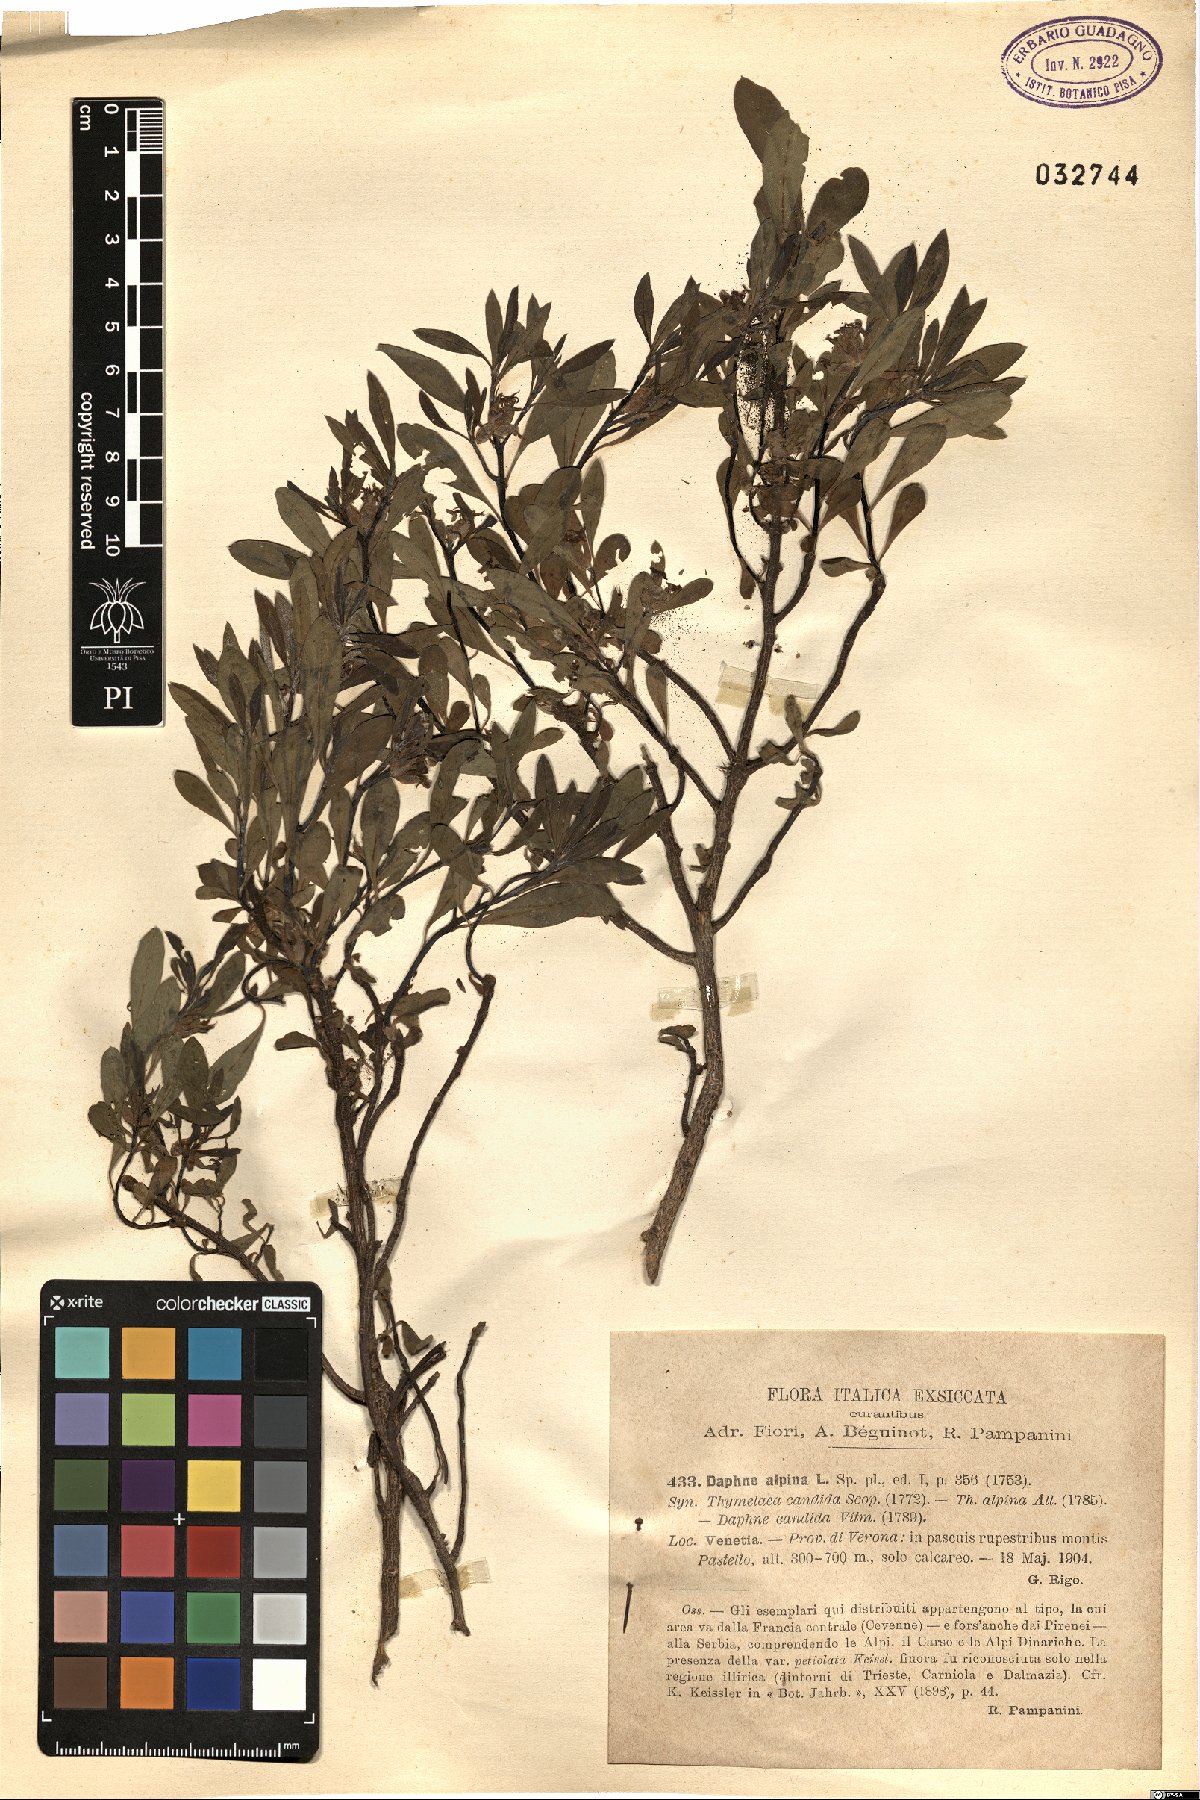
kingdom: Plantae
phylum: Tracheophyta
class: Magnoliopsida
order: Malvales
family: Thymelaeaceae
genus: Daphne
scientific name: Daphne alpina
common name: Alpine daphne
